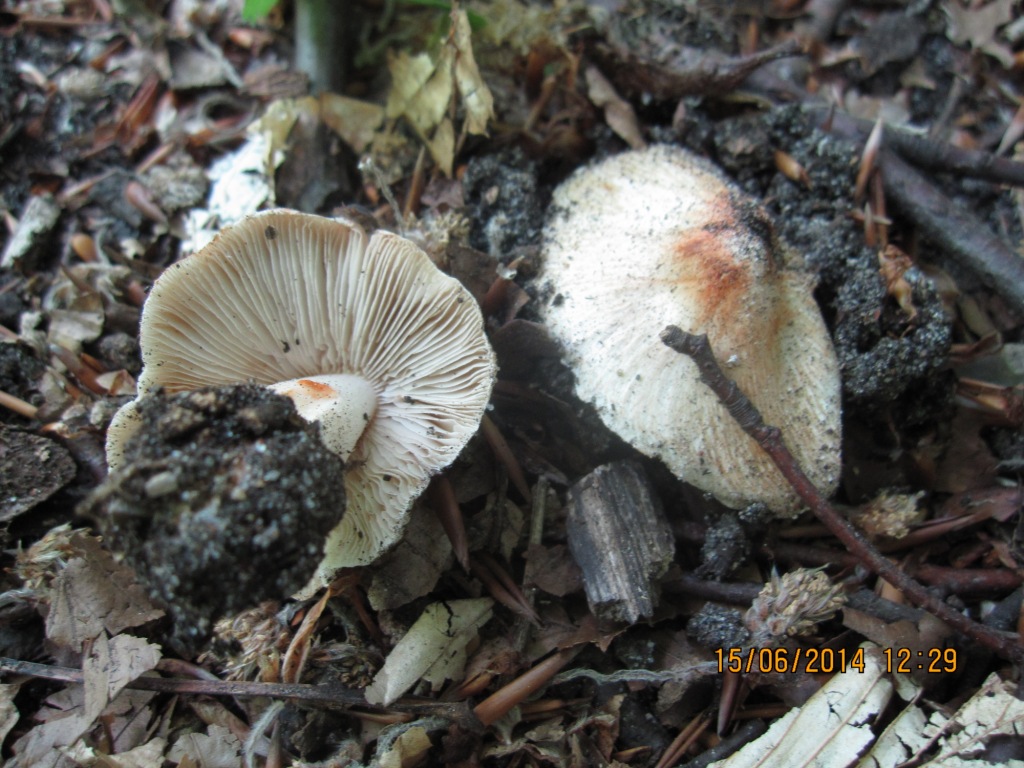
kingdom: Fungi
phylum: Basidiomycota
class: Agaricomycetes
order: Agaricales
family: Inocybaceae
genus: Inosperma
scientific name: Inosperma erubescens
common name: giftig trævlhat
